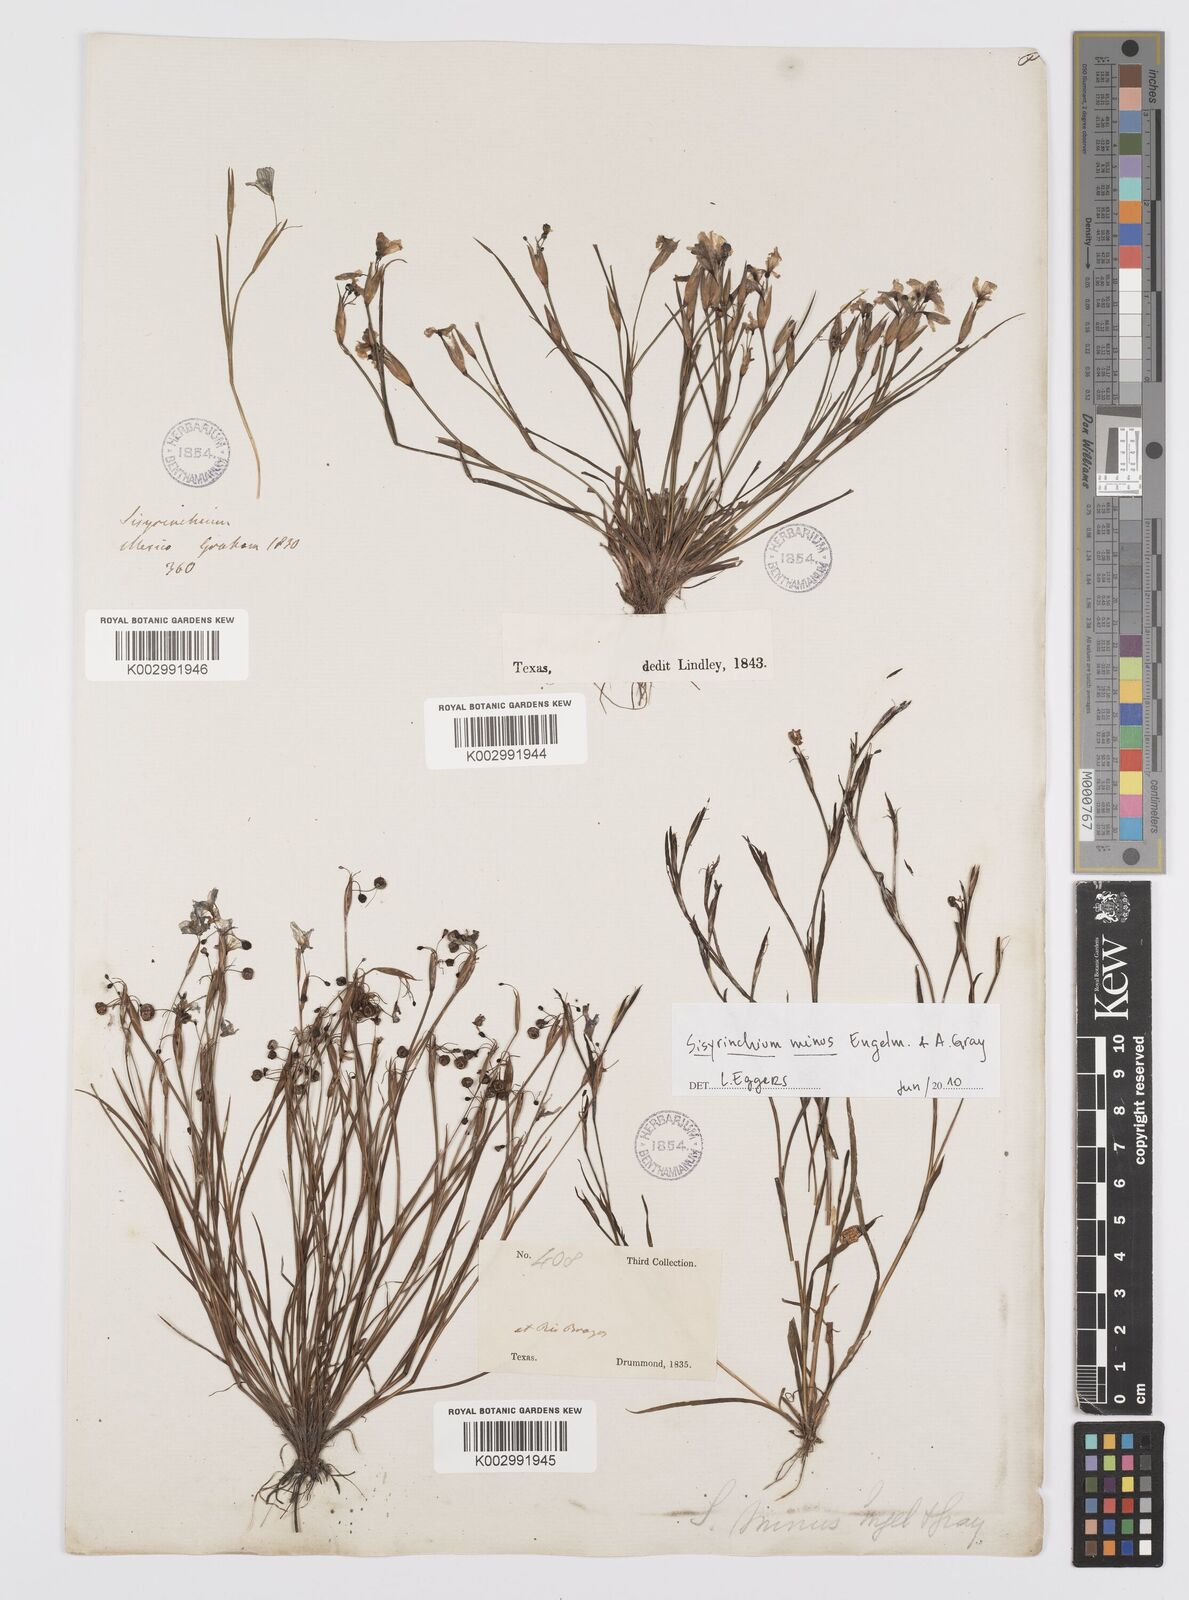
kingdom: Plantae
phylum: Tracheophyta
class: Liliopsida
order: Asparagales
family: Iridaceae
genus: Sisyrinchium
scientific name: Sisyrinchium minus
